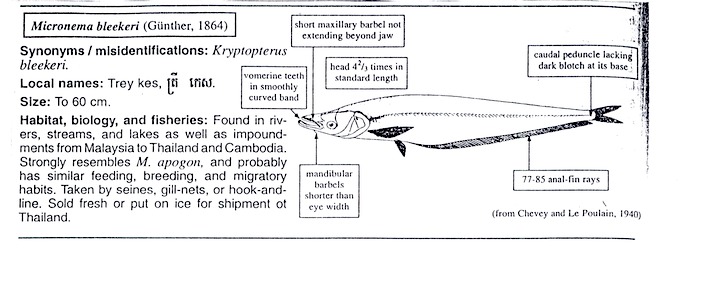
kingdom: Animalia
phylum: Chordata
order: Siluriformes
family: Siluridae
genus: Phalacronotus
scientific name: Phalacronotus bleekeri
